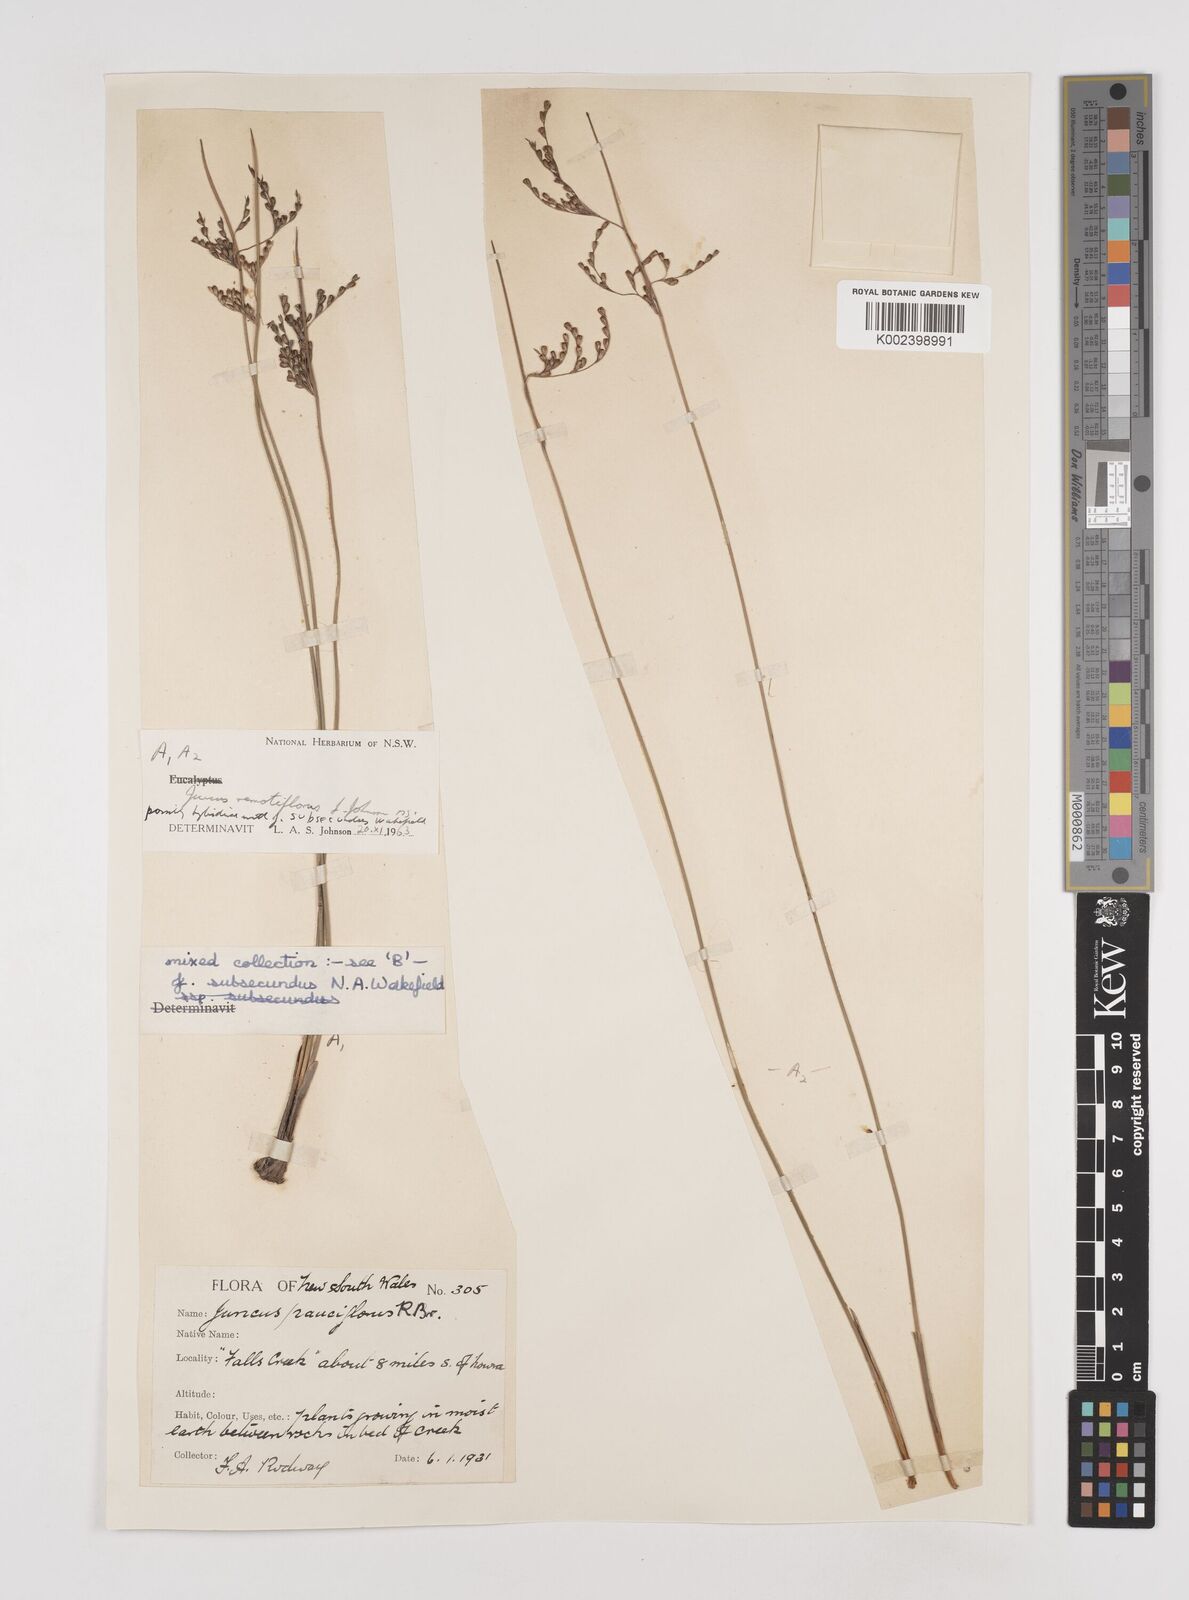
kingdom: Plantae
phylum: Tracheophyta
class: Liliopsida
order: Poales
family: Juncaceae
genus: Juncus
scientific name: Juncus remotiflorus
